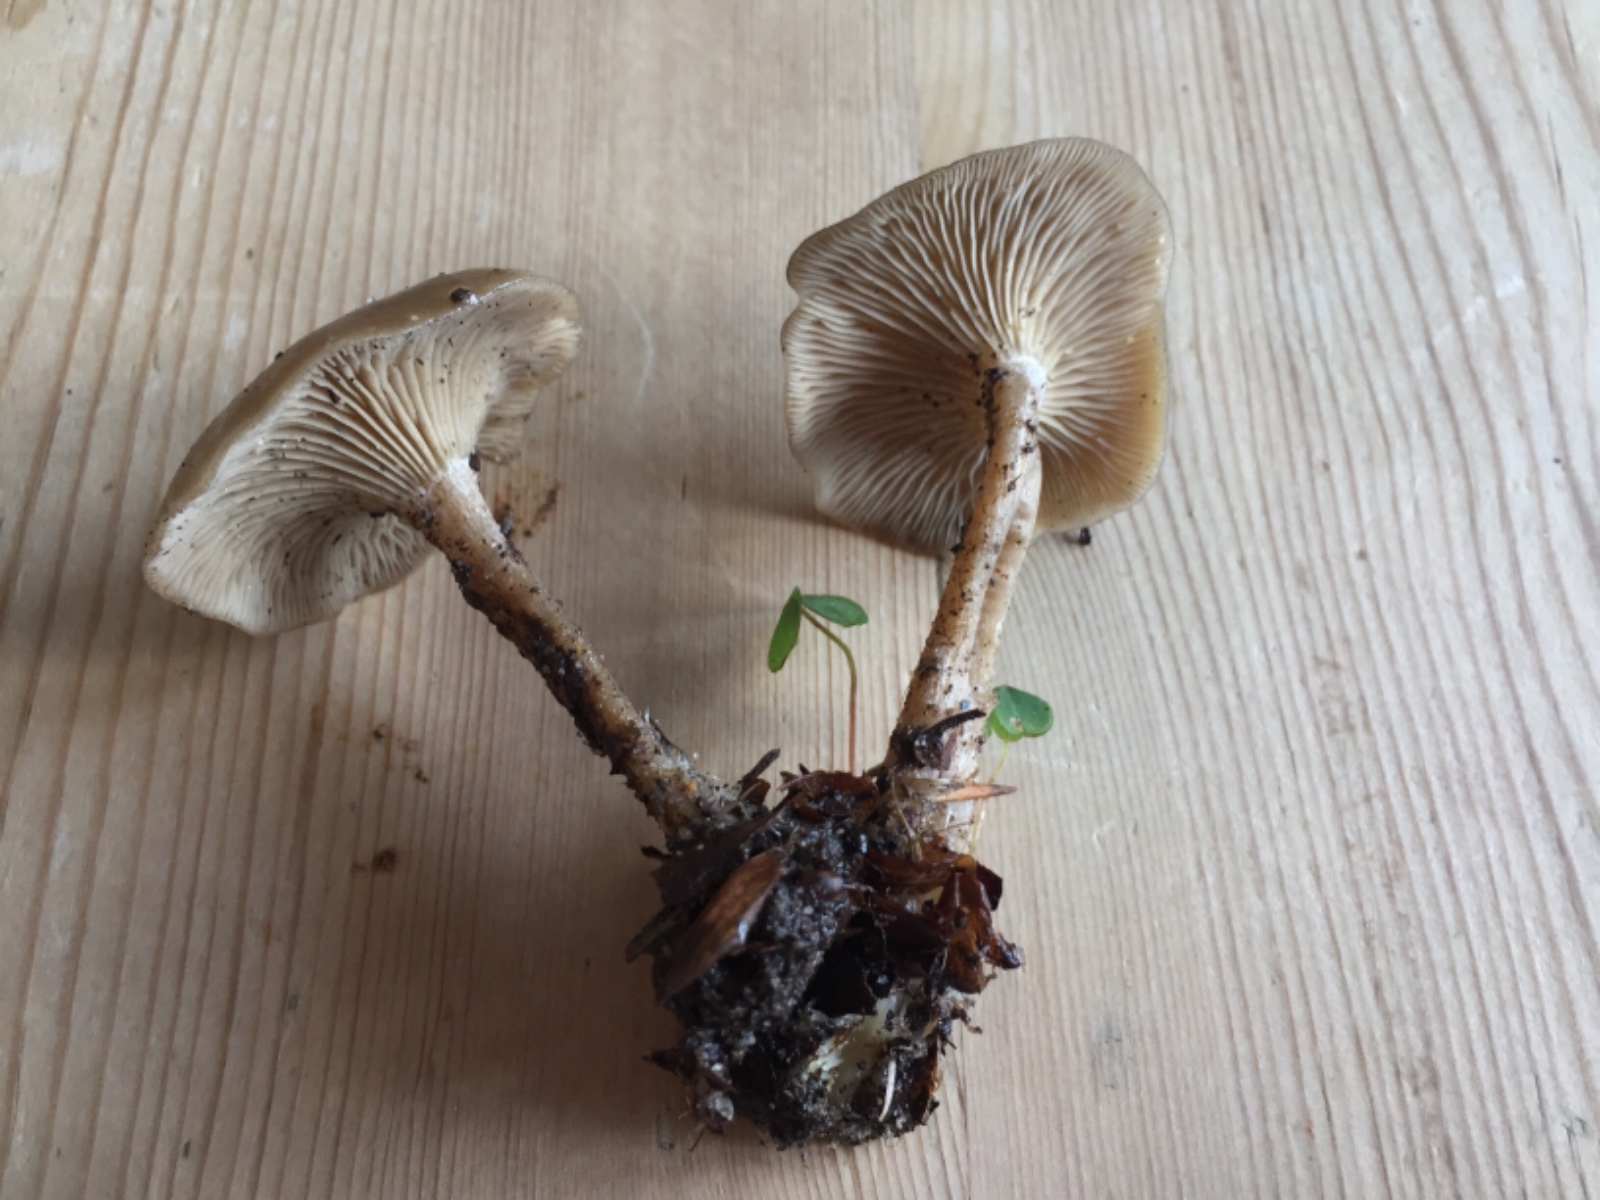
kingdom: Fungi
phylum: Basidiomycota
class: Agaricomycetes
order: Agaricales
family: Tricholomataceae
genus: Clitocybe
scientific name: Clitocybe subspadicea
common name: nitrøs tragthat
